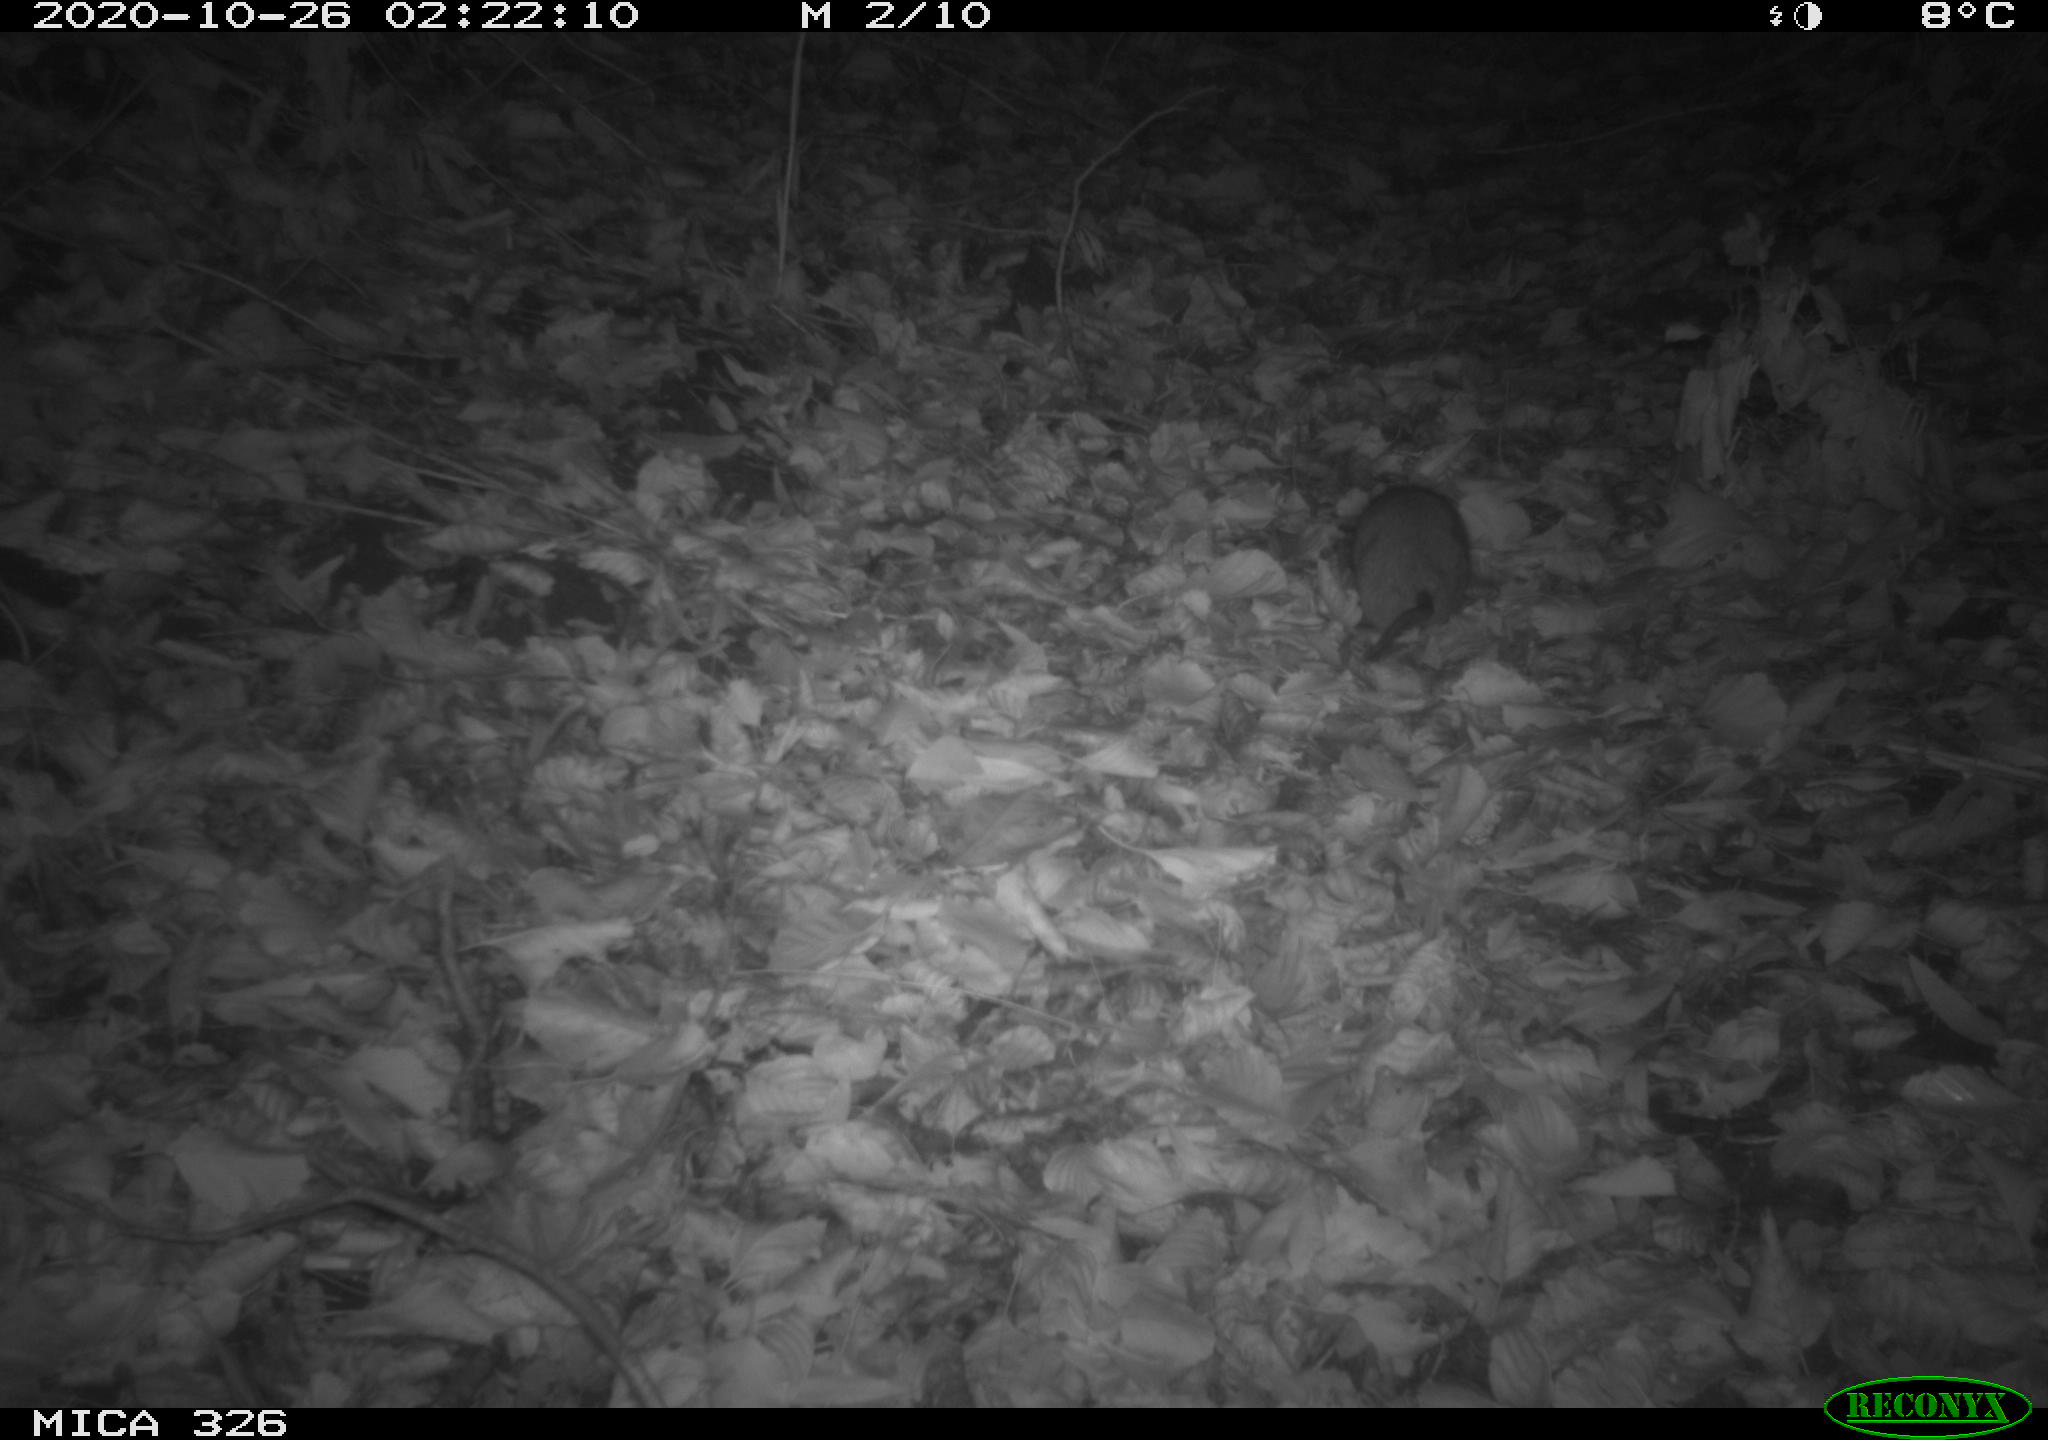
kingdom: Animalia
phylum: Chordata
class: Mammalia
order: Rodentia
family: Muridae
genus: Rattus
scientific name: Rattus norvegicus
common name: Brown rat
